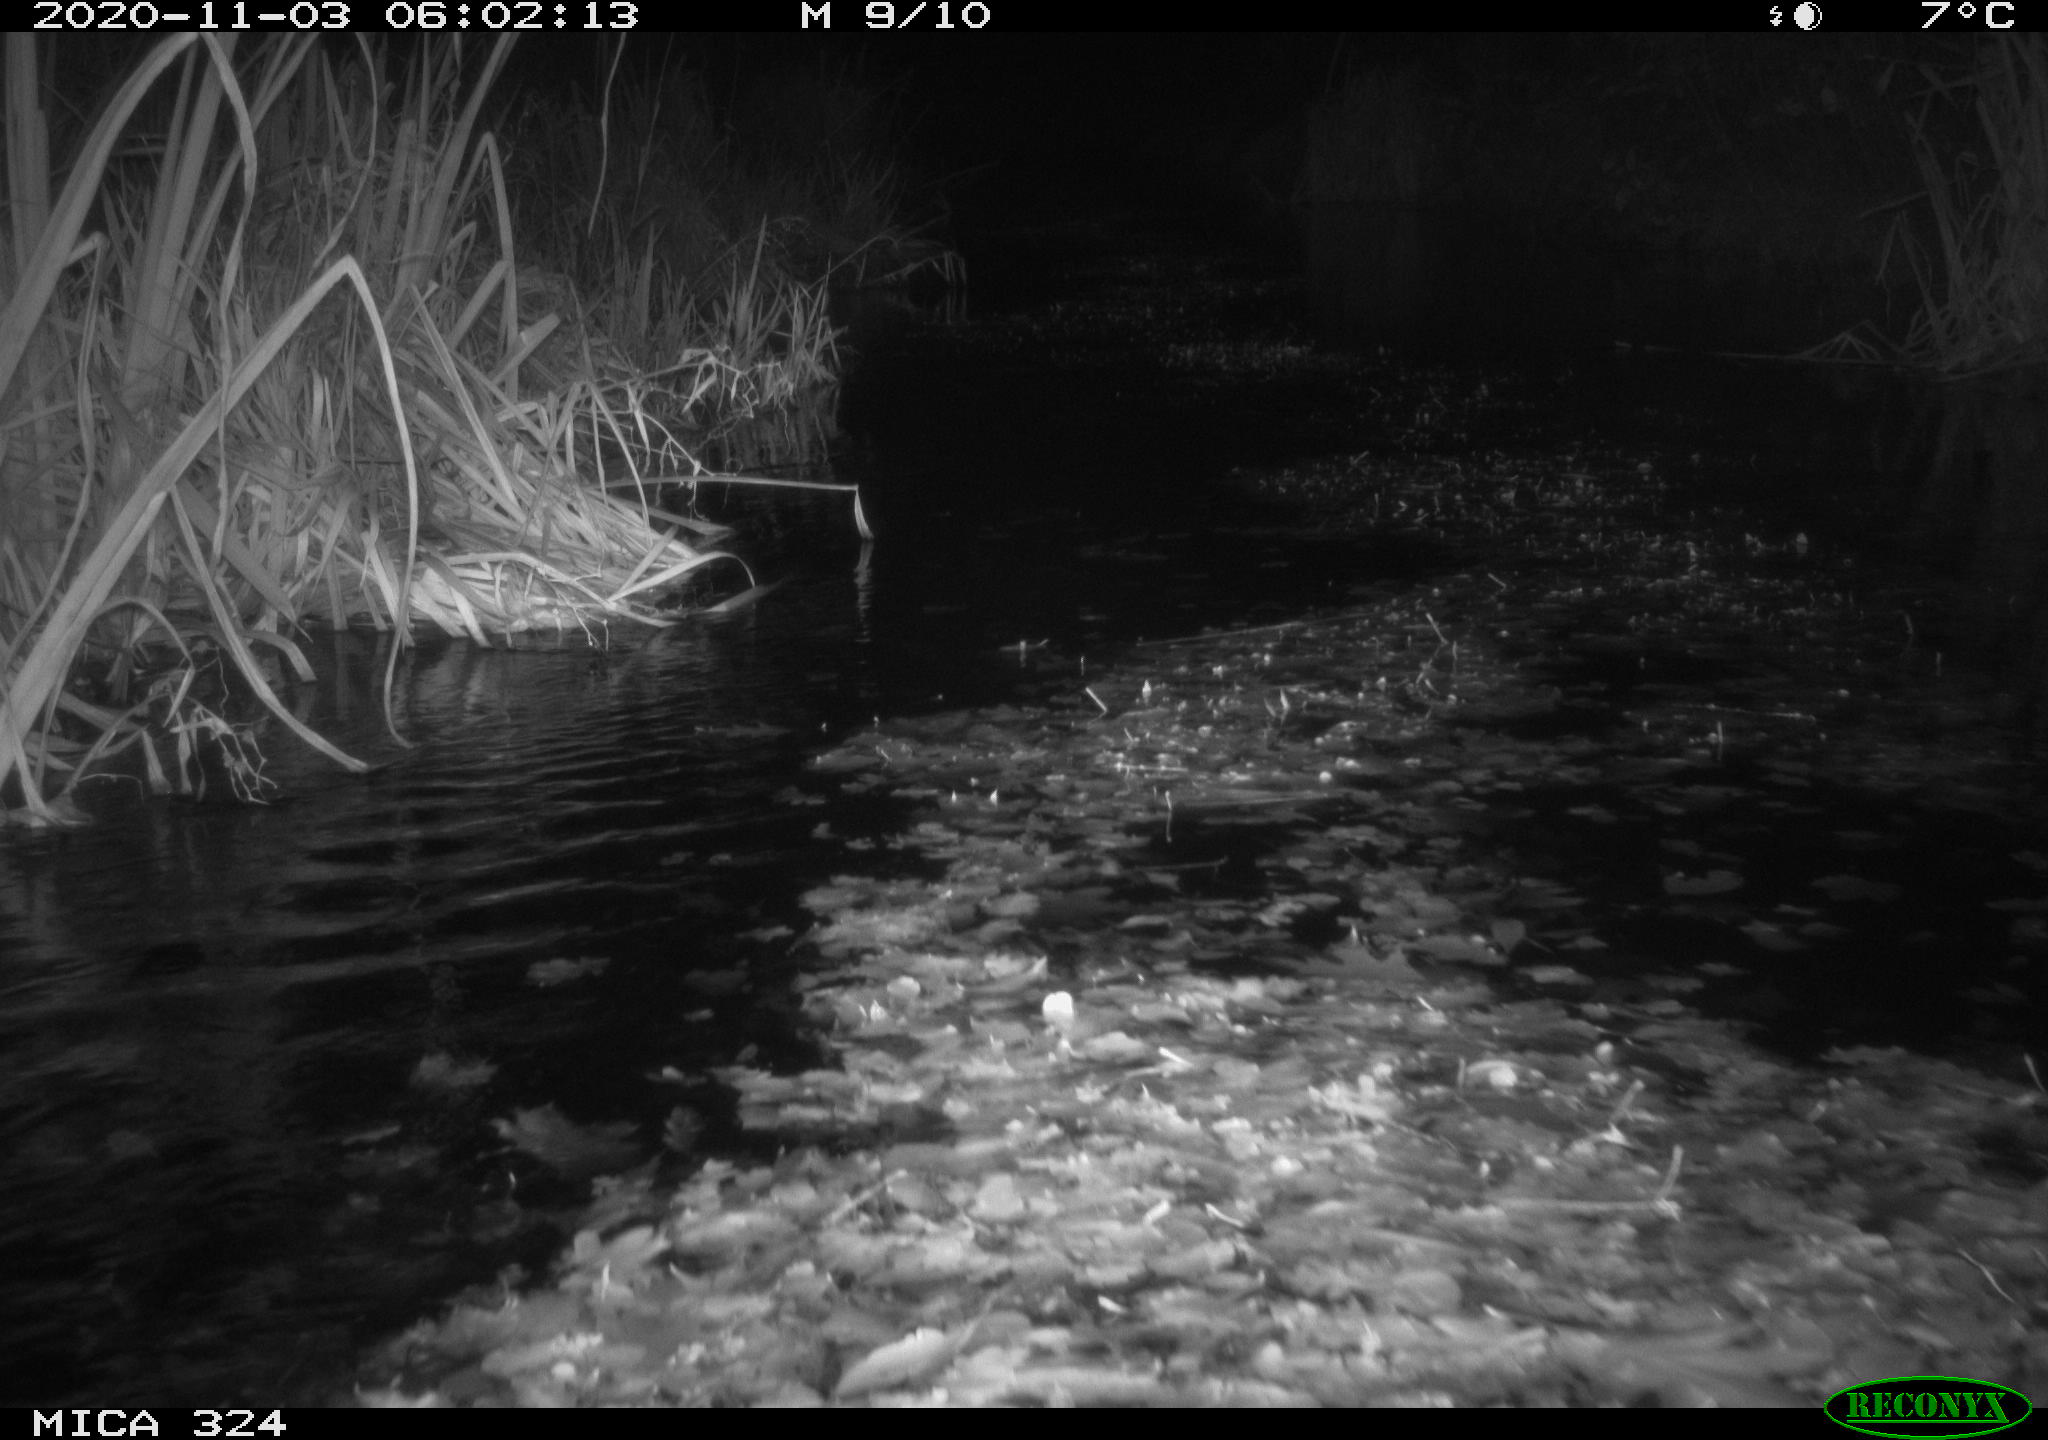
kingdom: Animalia
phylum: Chordata
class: Mammalia
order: Rodentia
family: Cricetidae
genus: Ondatra
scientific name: Ondatra zibethicus
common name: Muskrat
